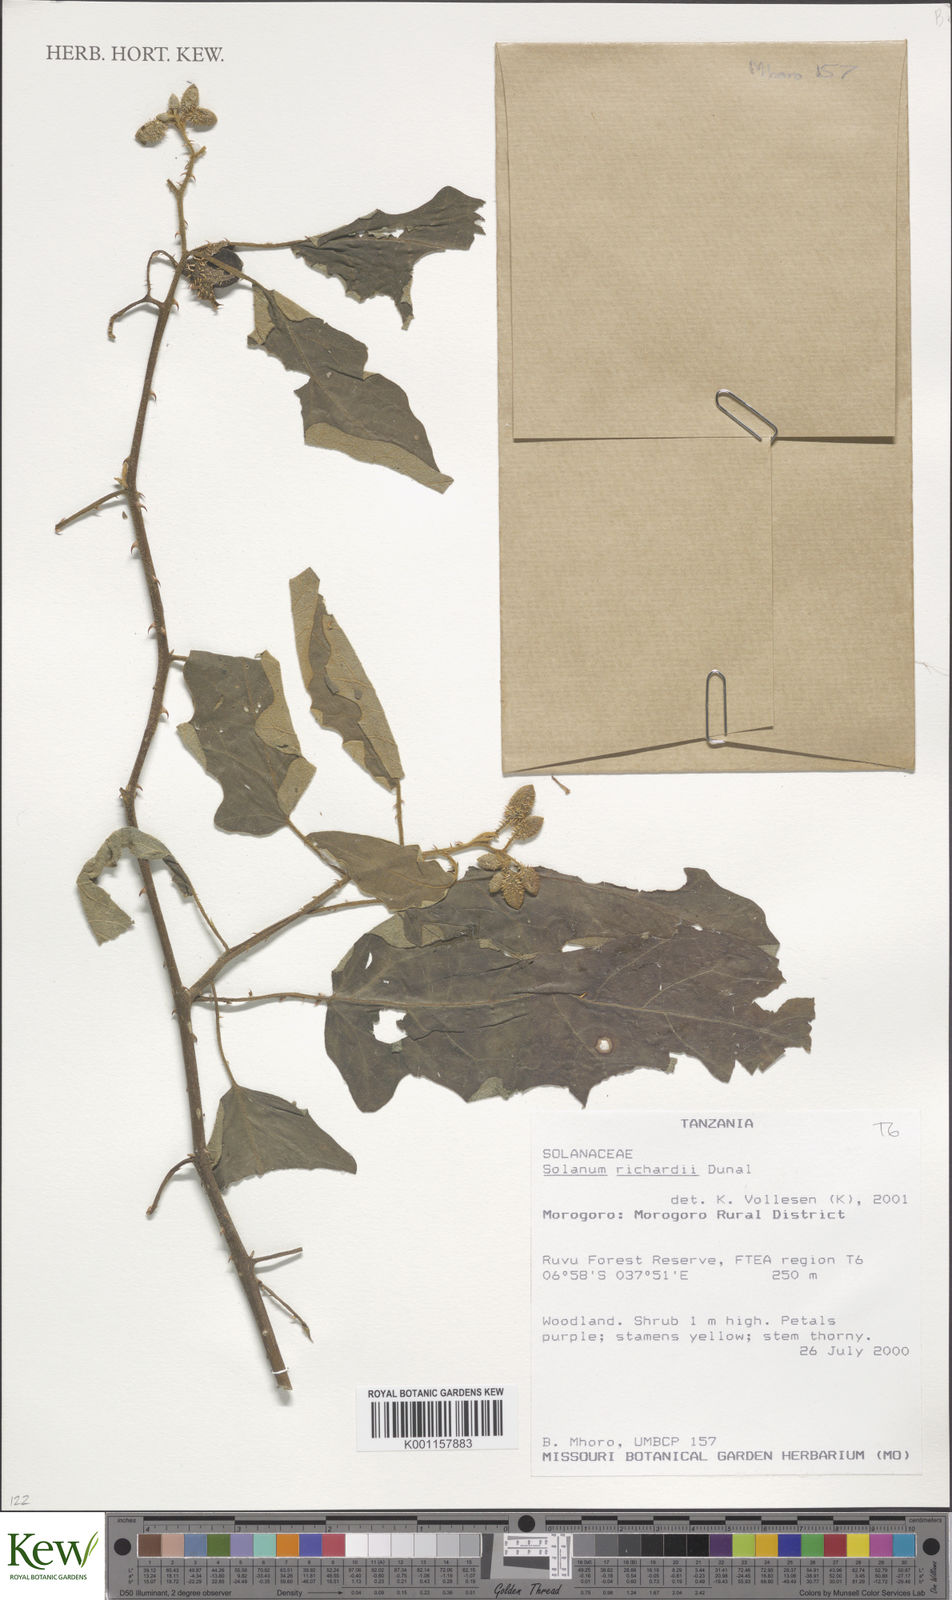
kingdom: Plantae
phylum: Tracheophyta
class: Magnoliopsida
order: Solanales
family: Solanaceae
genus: Solanum
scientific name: Solanum richardii
